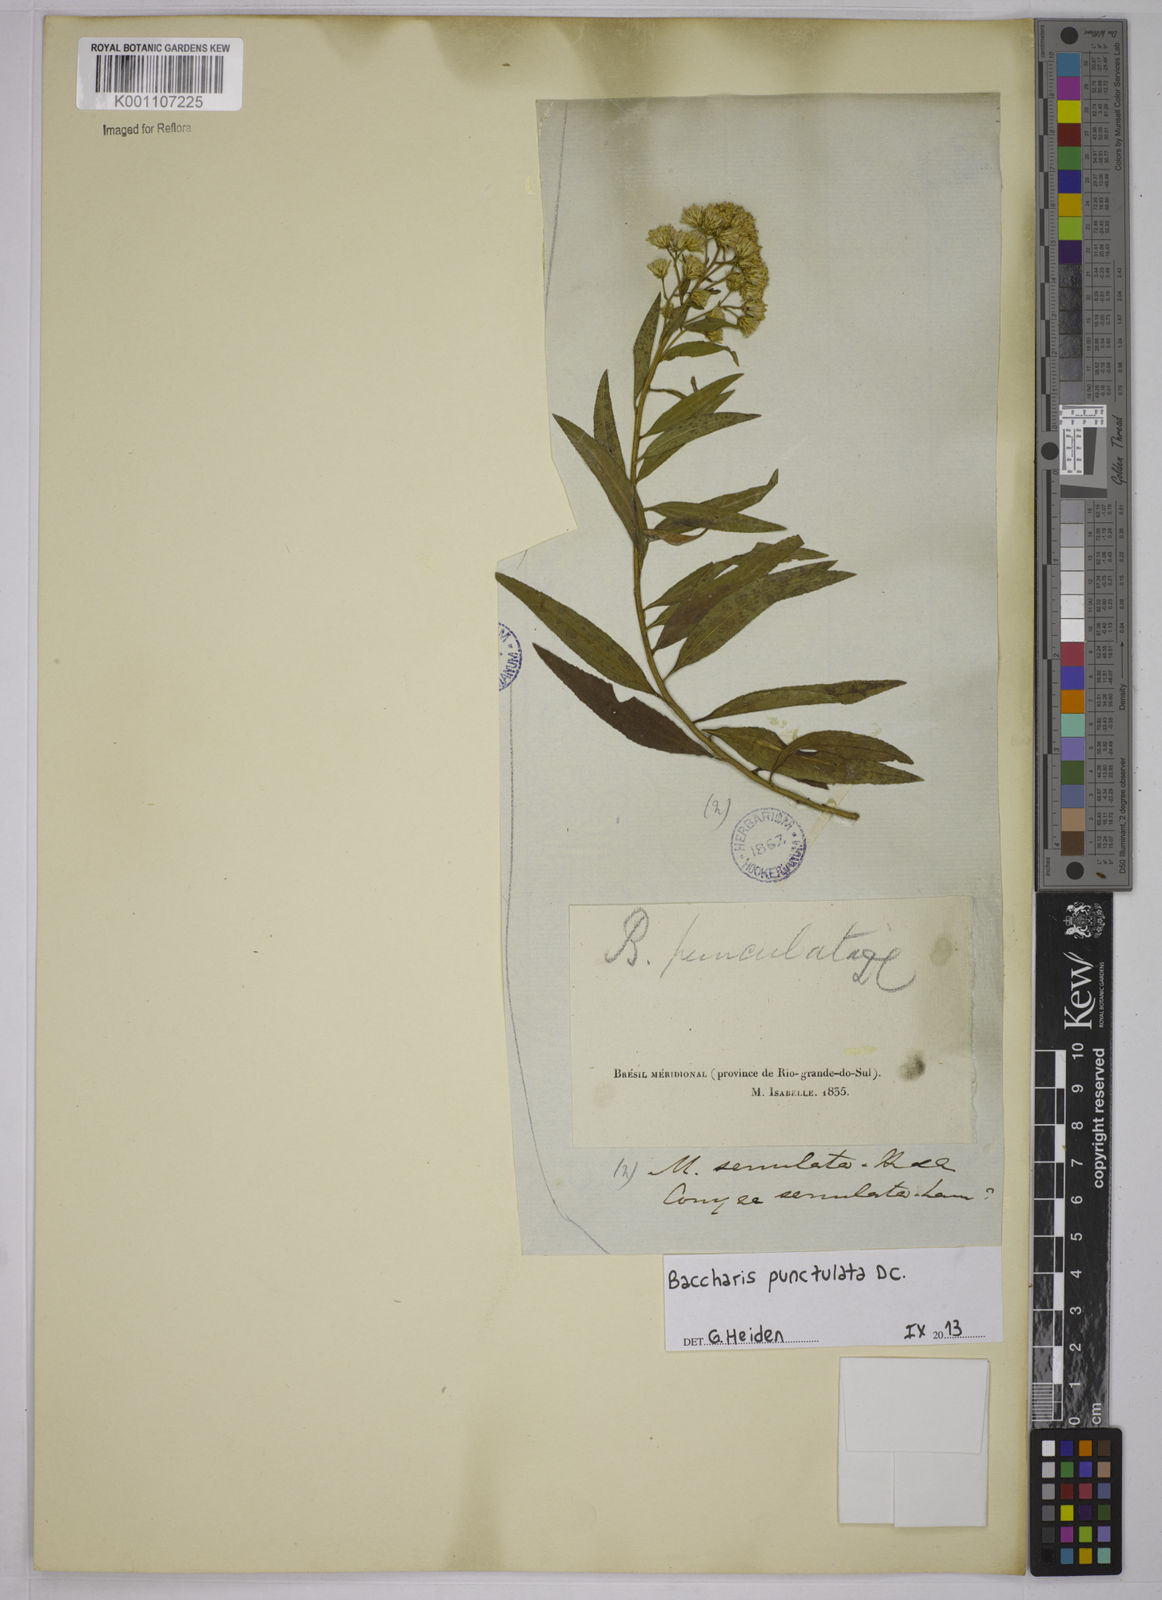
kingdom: Plantae
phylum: Tracheophyta
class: Magnoliopsida
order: Asterales
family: Asteraceae
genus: Baccharis
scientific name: Baccharis punctulata
